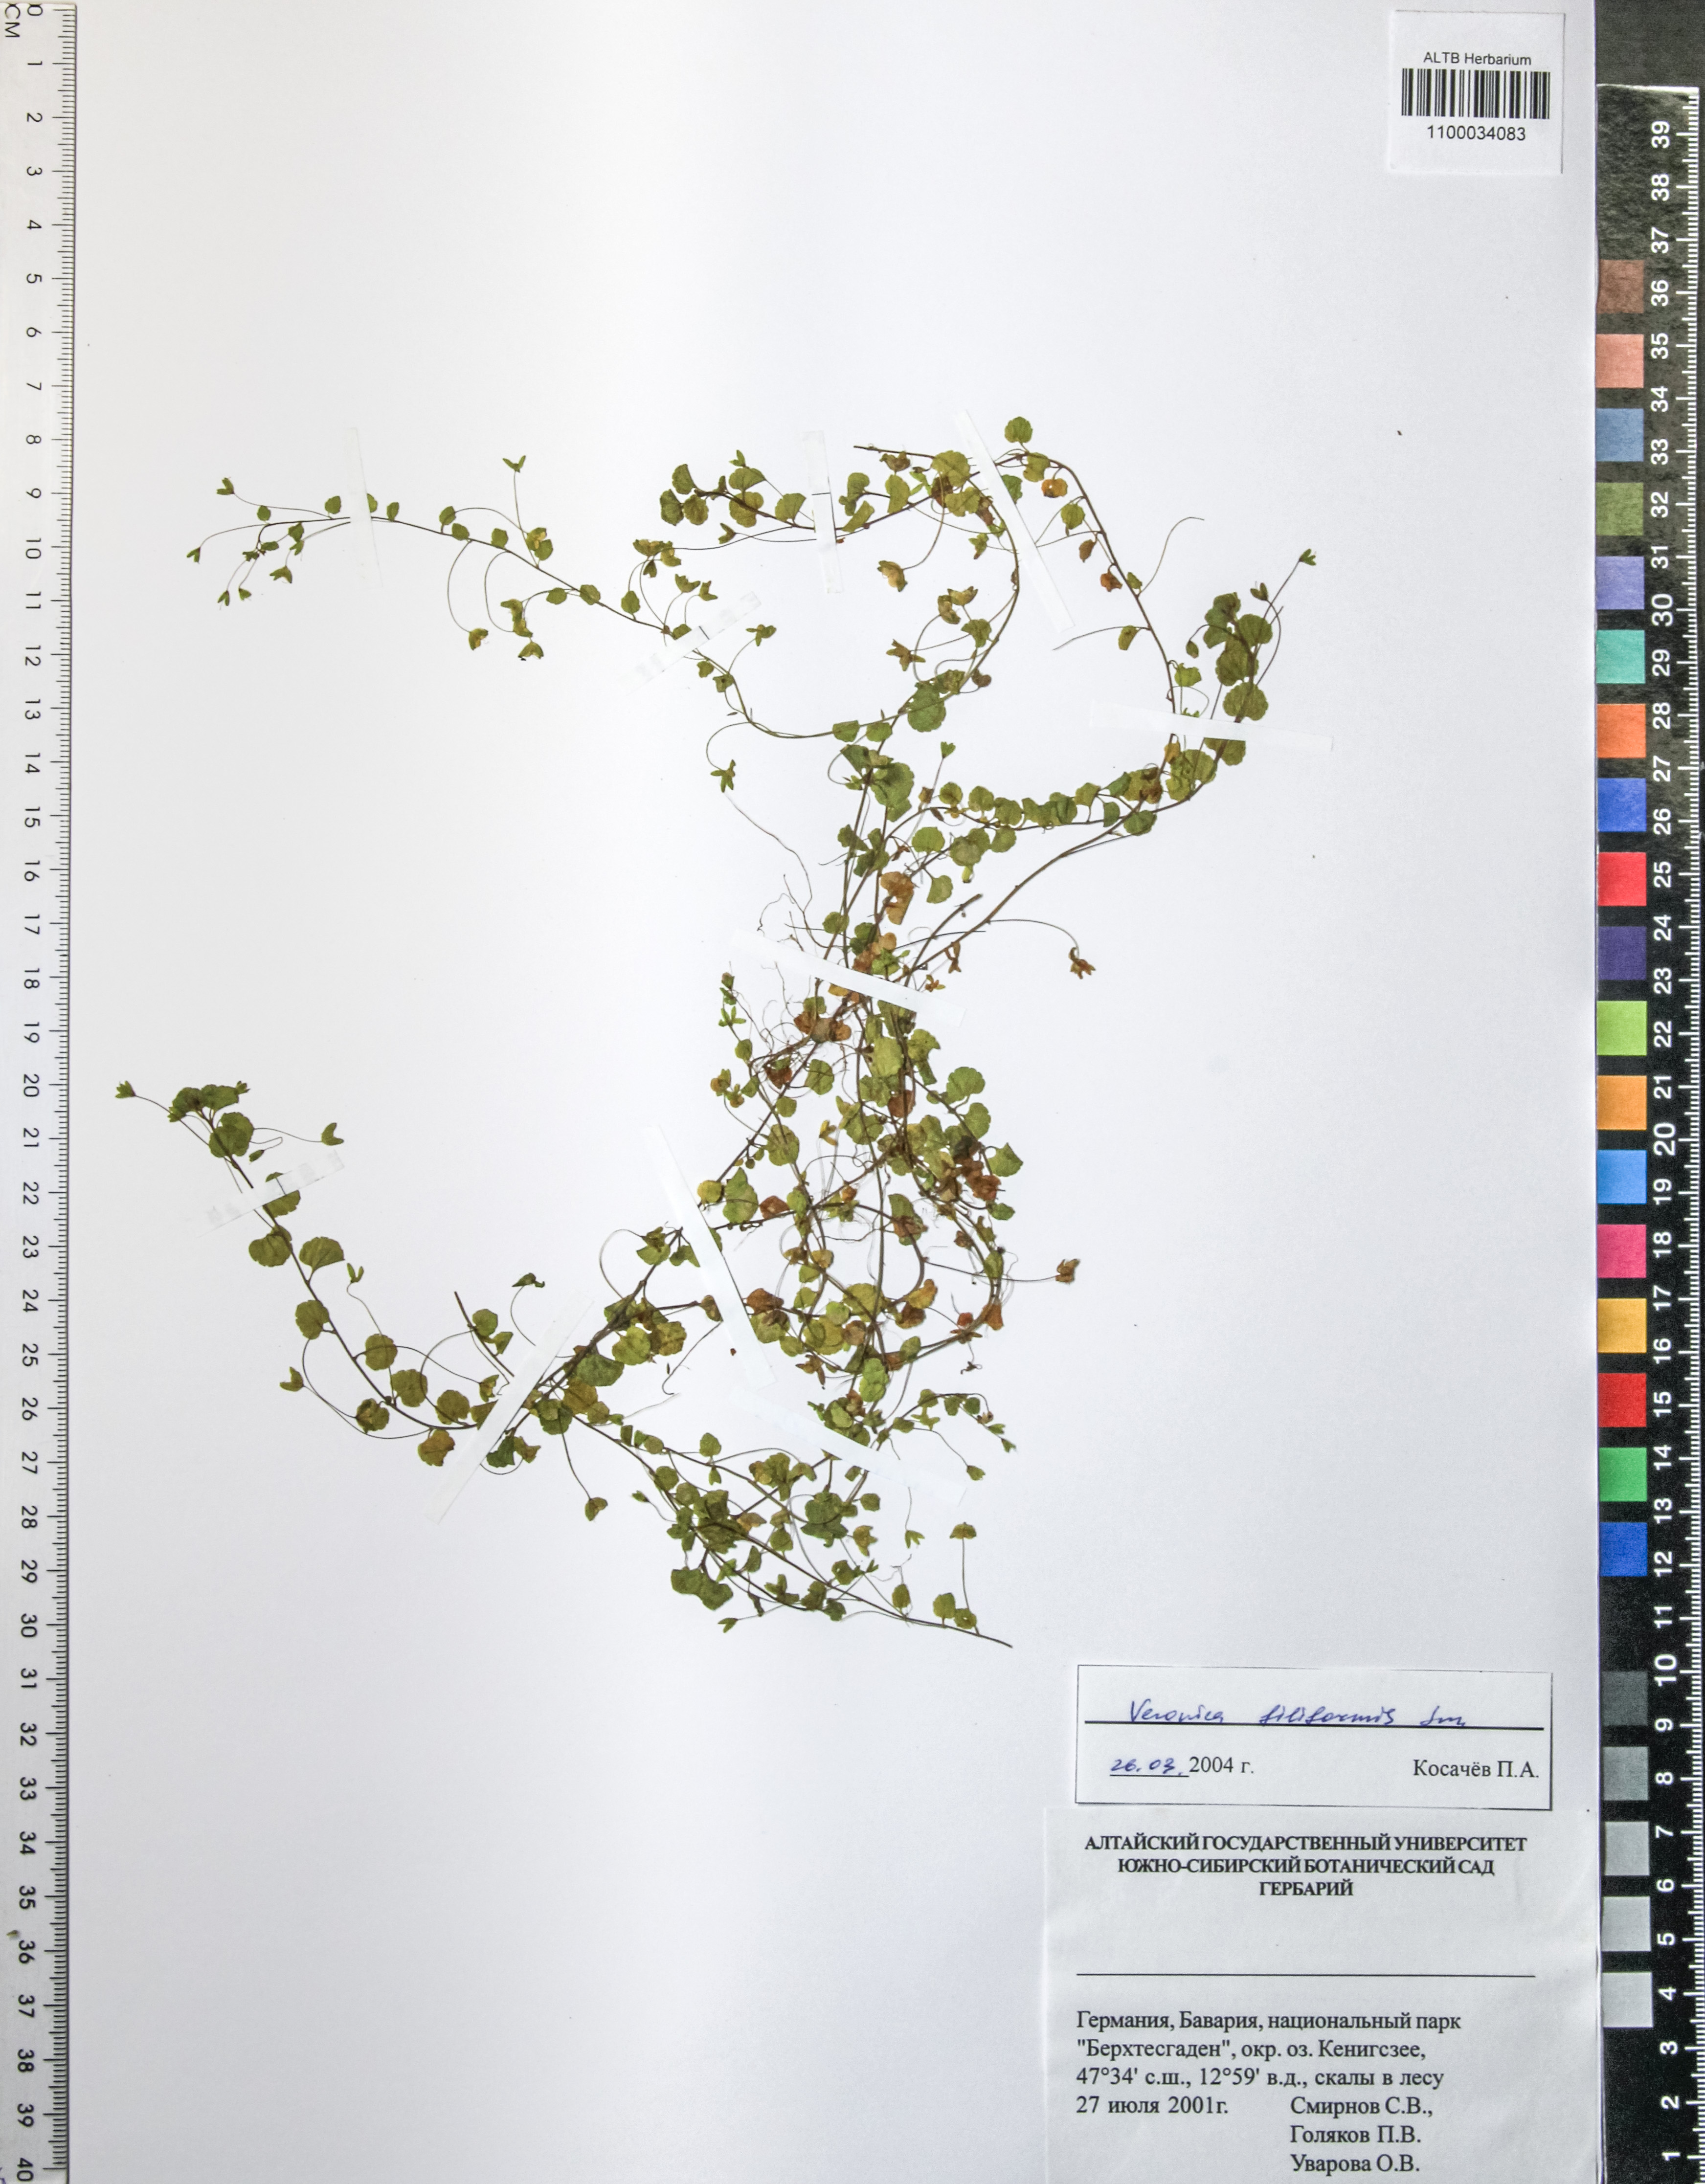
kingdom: Plantae
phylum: Tracheophyta
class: Magnoliopsida
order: Lamiales
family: Plantaginaceae
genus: Veronica
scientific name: Veronica filiformis
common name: Slender speedwell
